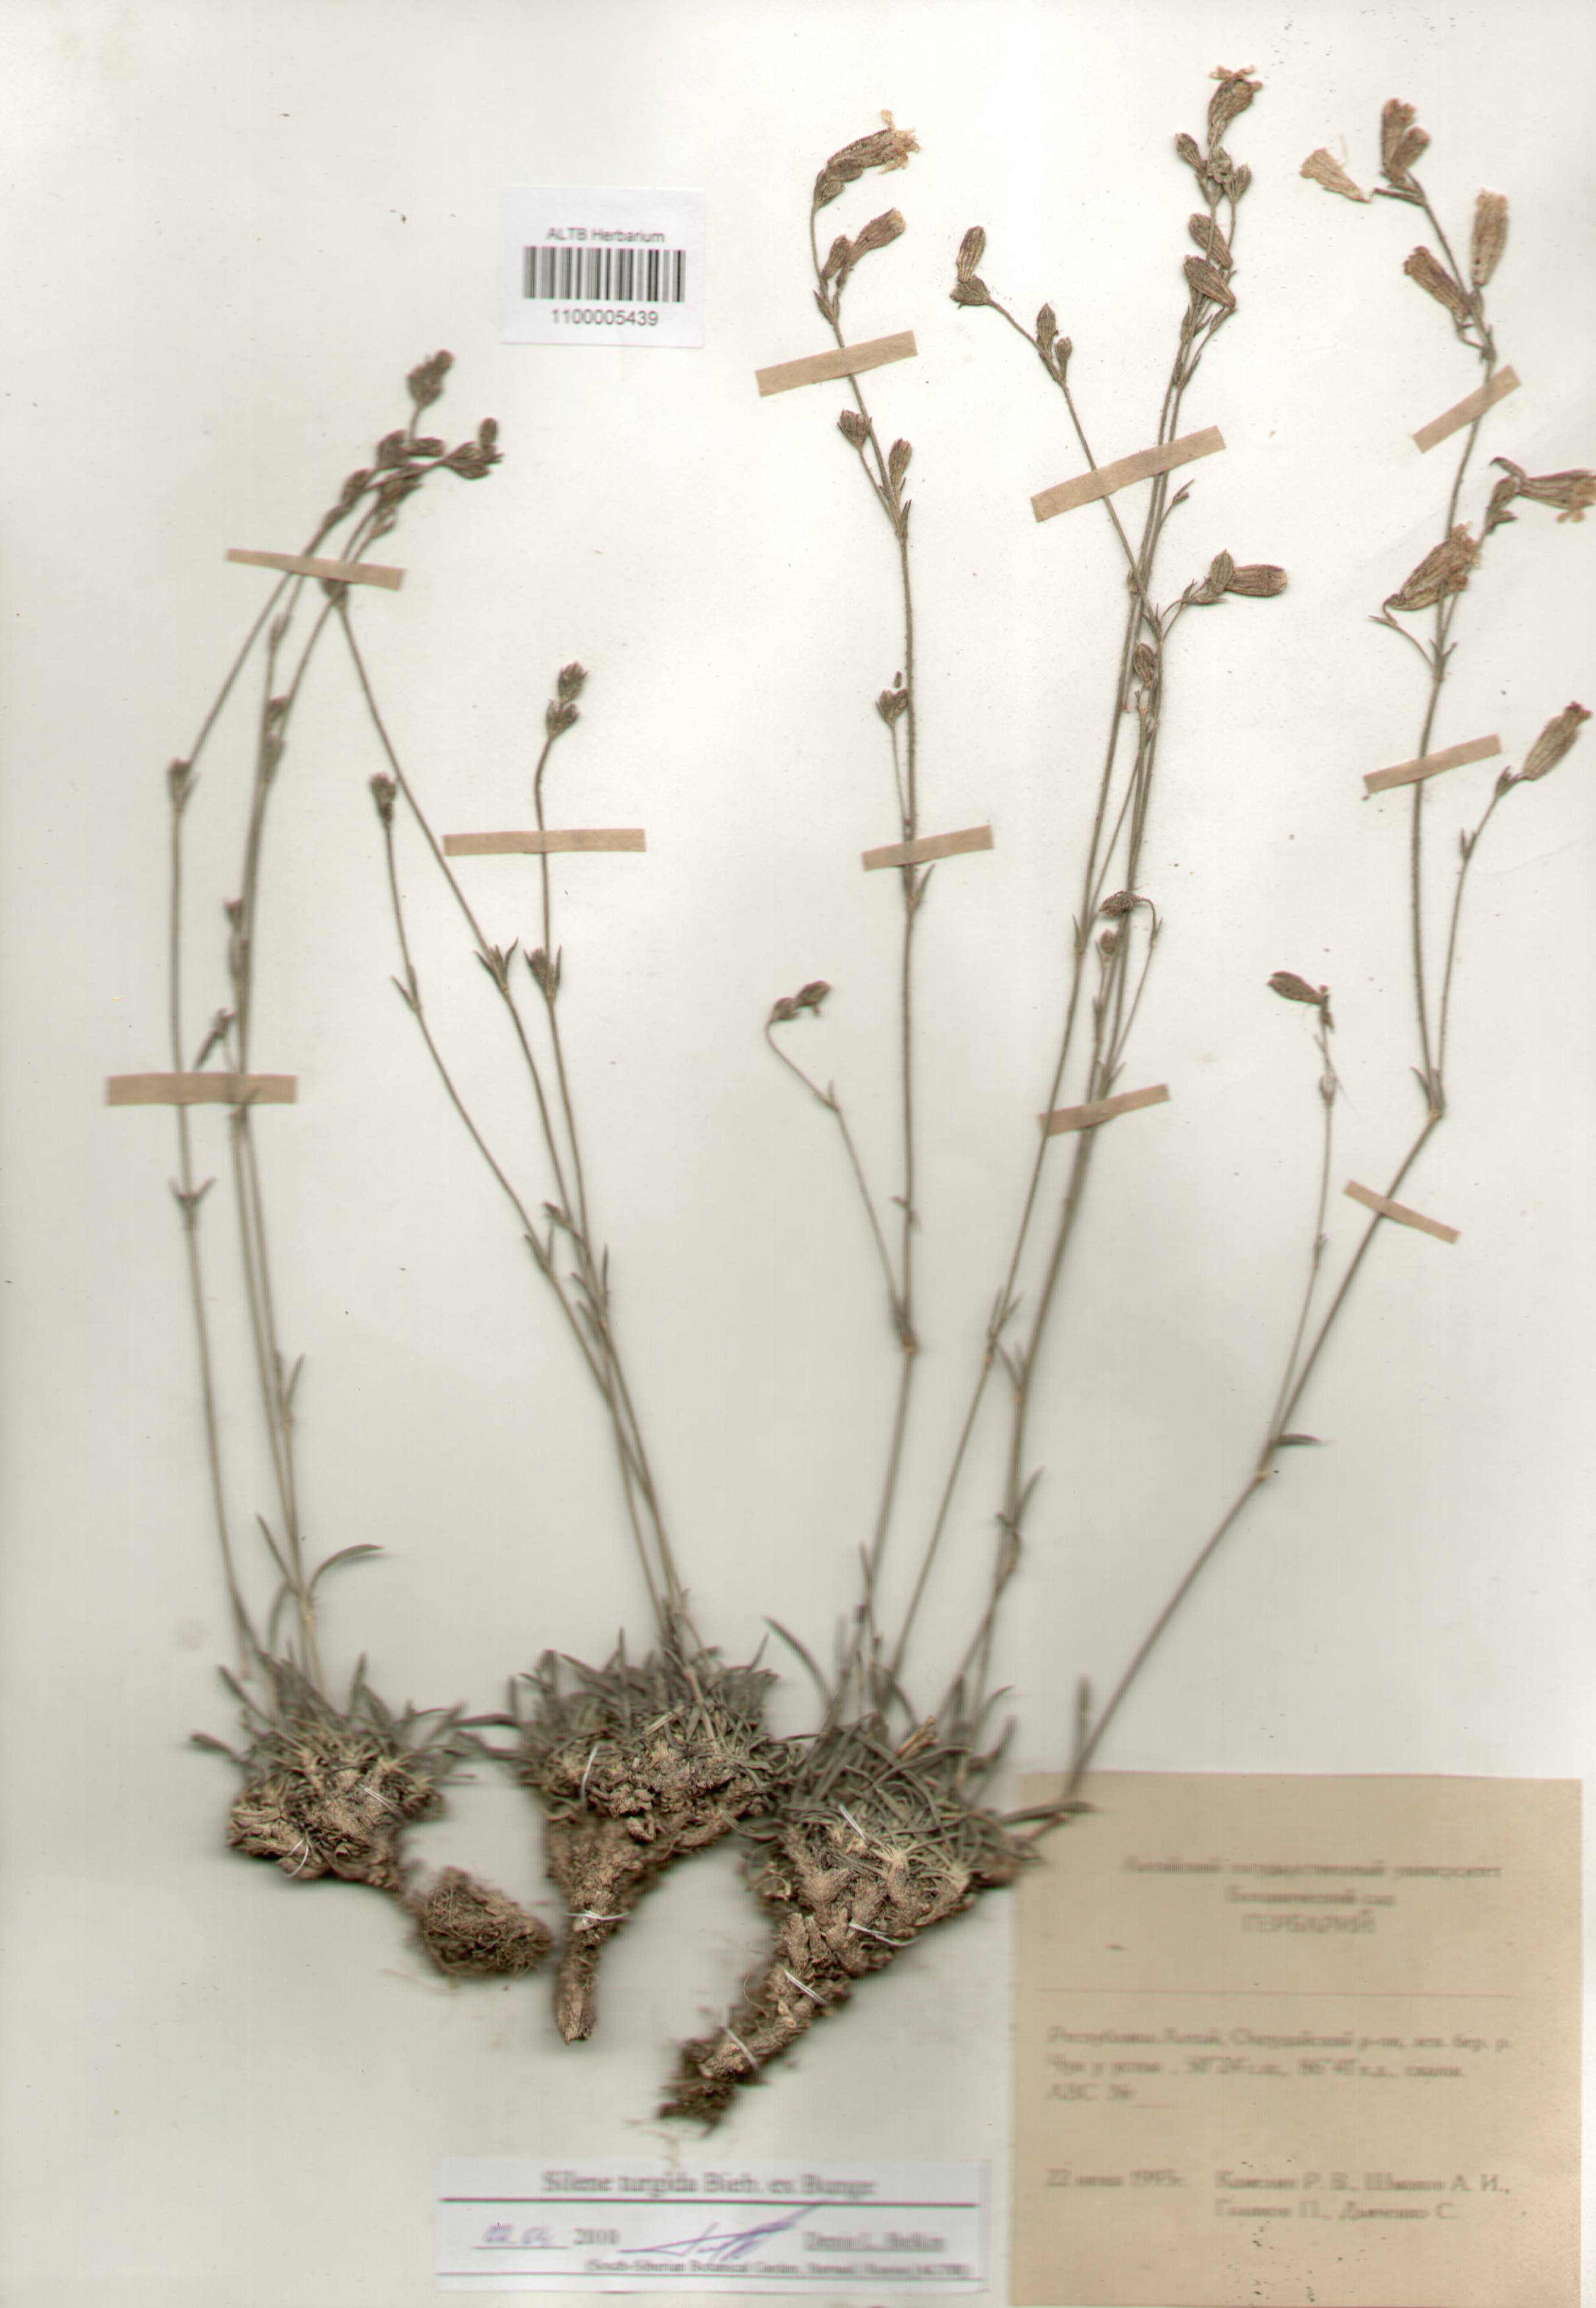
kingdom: Plantae
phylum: Tracheophyta
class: Magnoliopsida
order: Caryophyllales
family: Caryophyllaceae
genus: Silene
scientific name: Silene turgida
